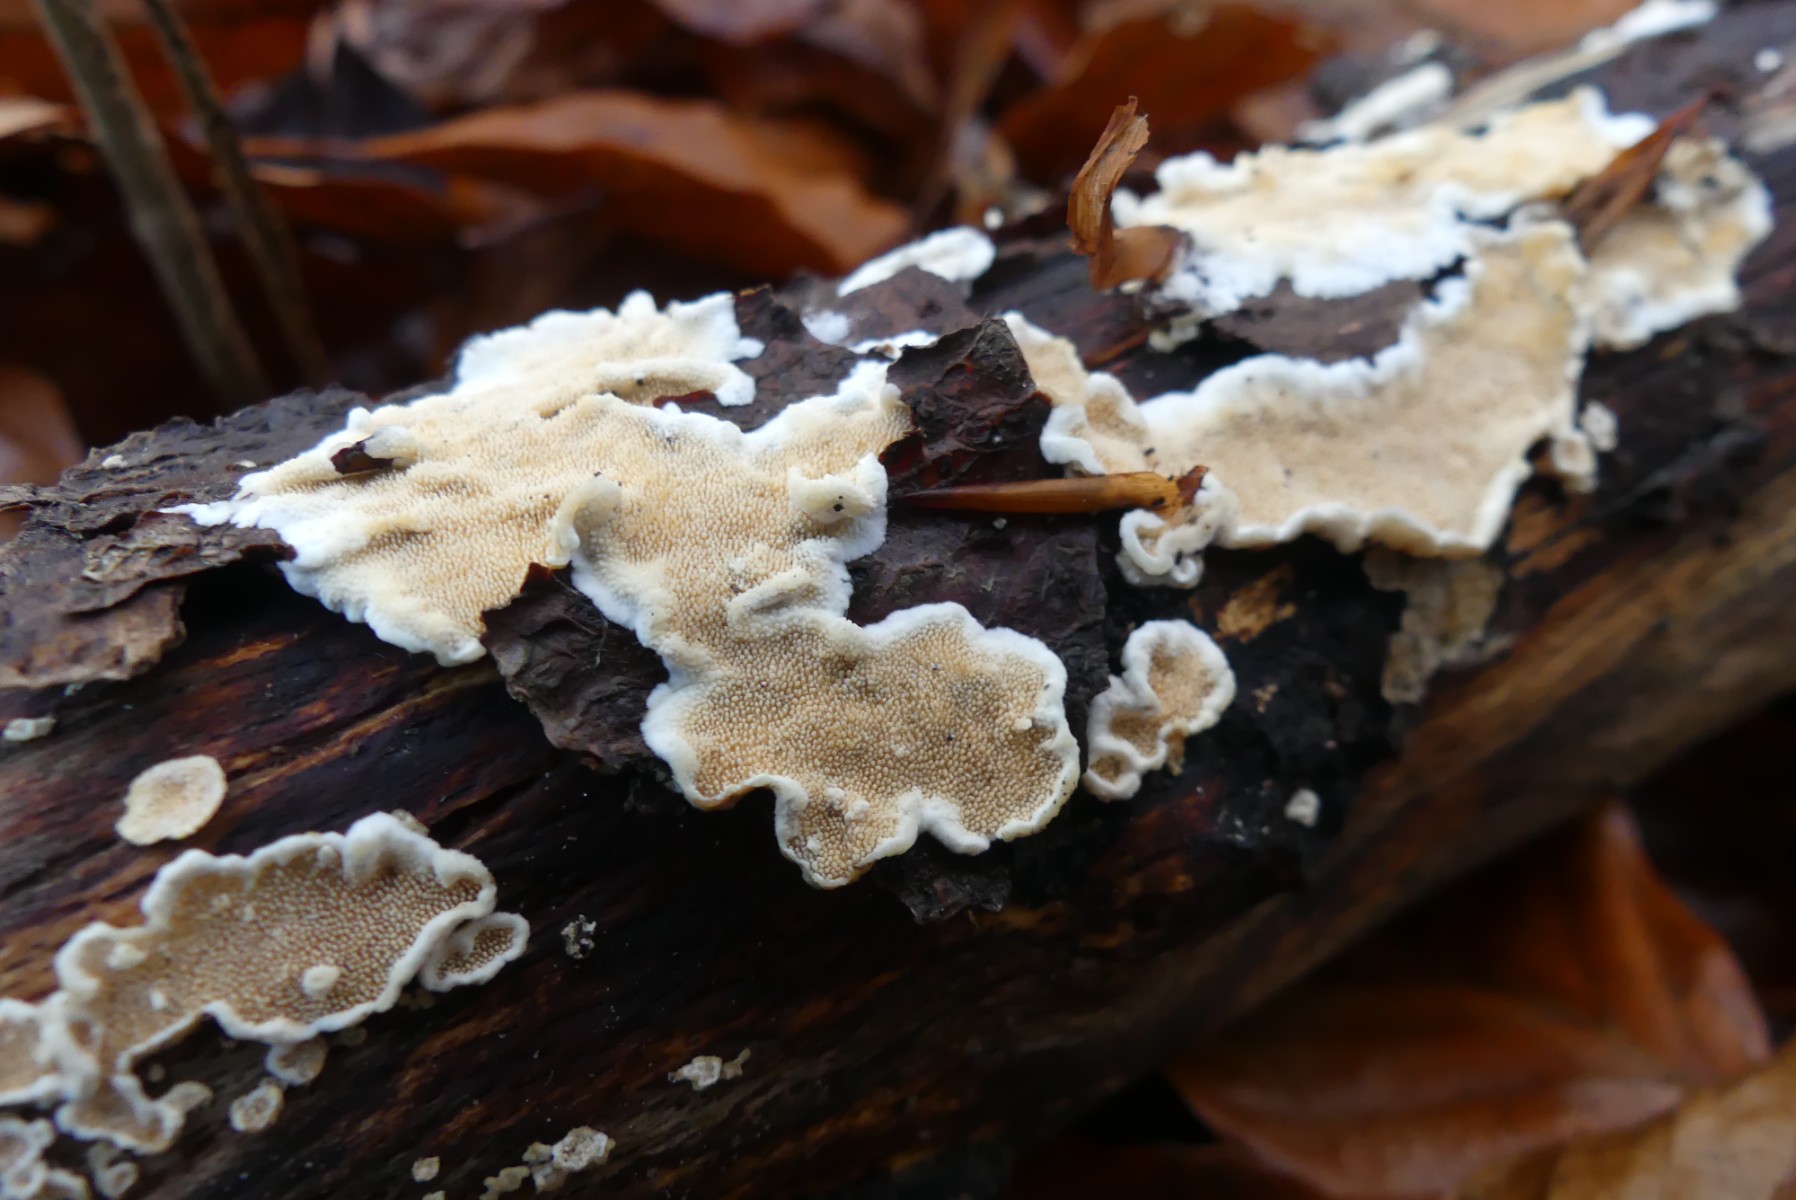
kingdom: Fungi
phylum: Basidiomycota
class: Agaricomycetes
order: Polyporales
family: Steccherinaceae
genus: Steccherinum
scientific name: Steccherinum ochraceum
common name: almindelig skønpig
